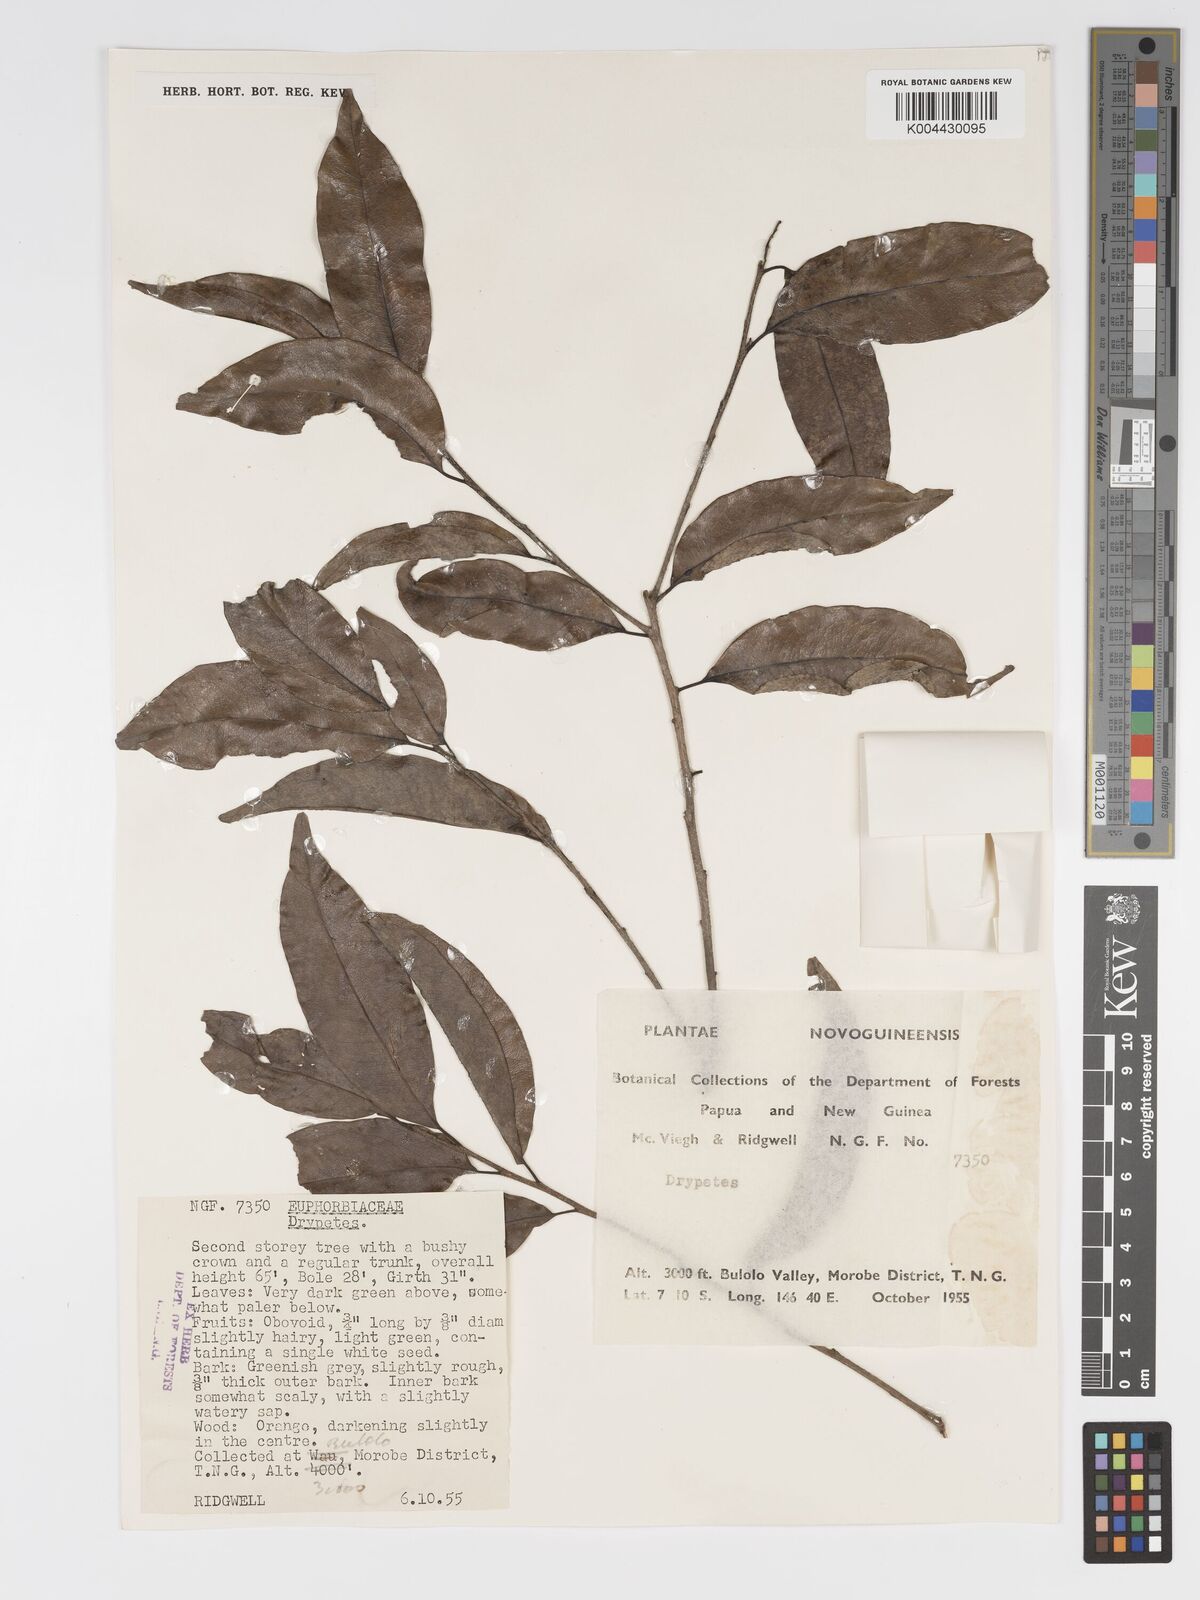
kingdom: Plantae
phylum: Tracheophyta
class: Magnoliopsida
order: Malpighiales
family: Putranjivaceae
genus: Drypetes
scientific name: Drypetes lasiogynoides
